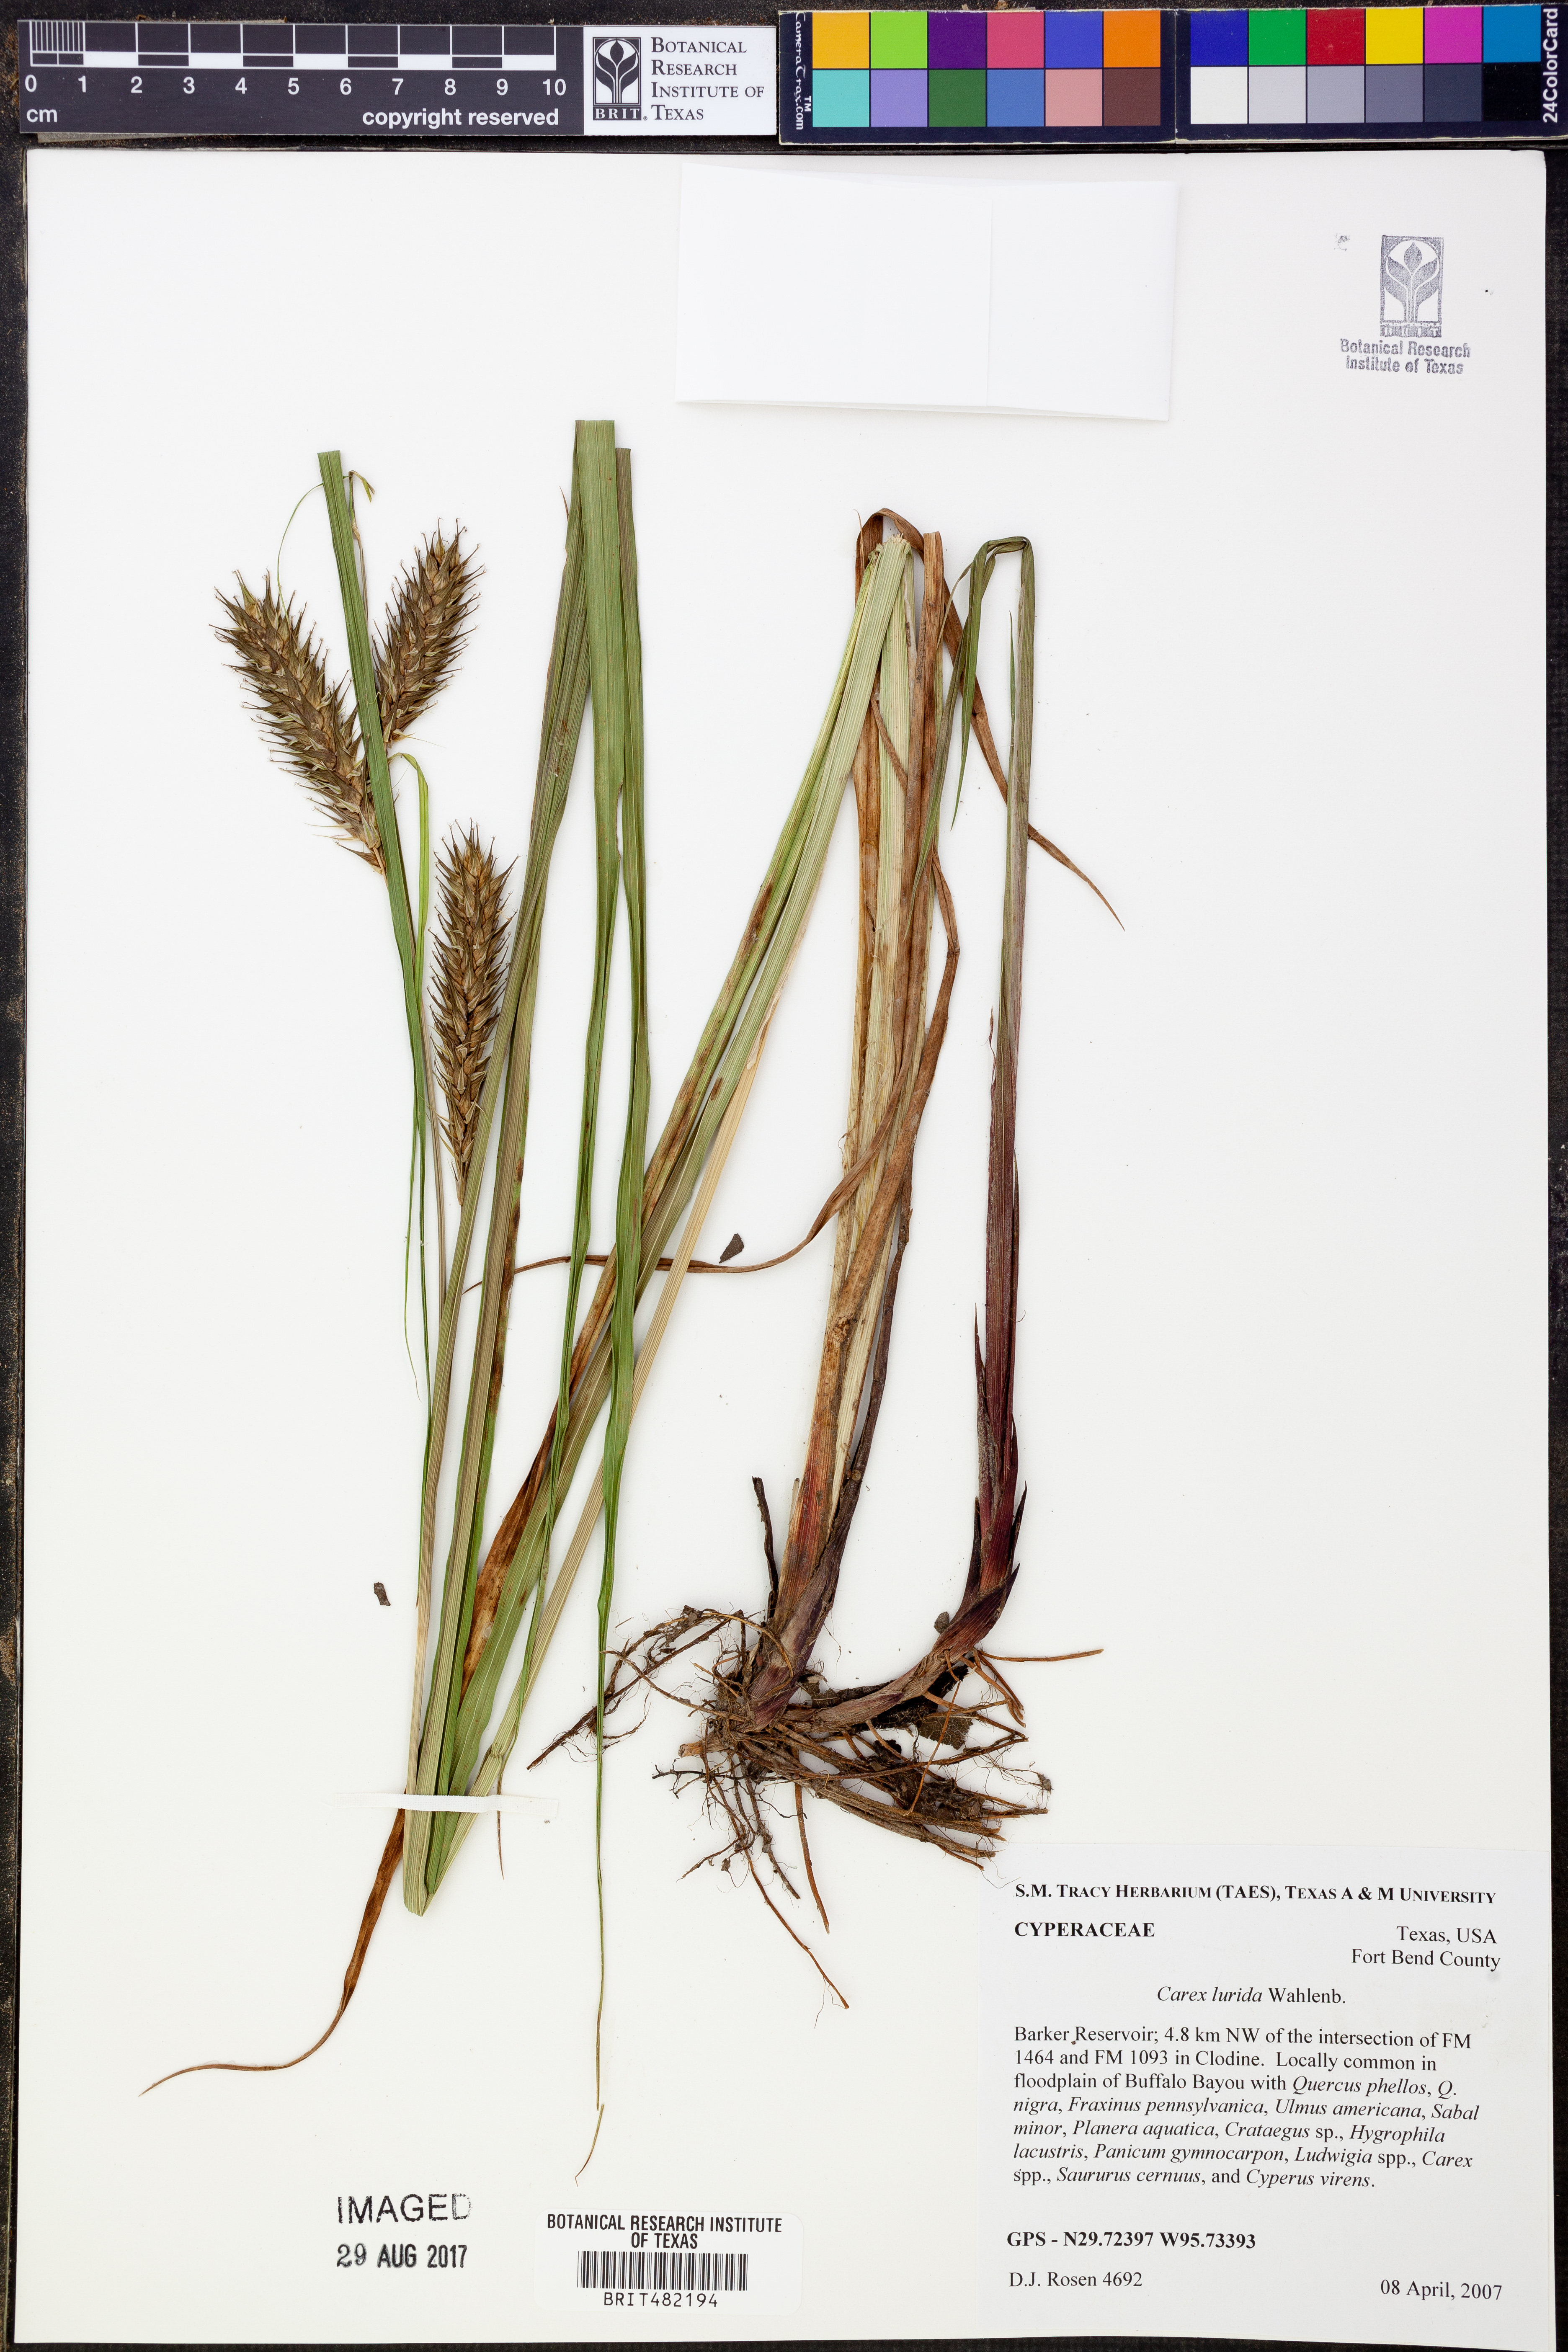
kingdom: Plantae
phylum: Tracheophyta
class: Liliopsida
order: Poales
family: Cyperaceae
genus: Carex
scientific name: Carex lurida
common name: Sallow sedge
